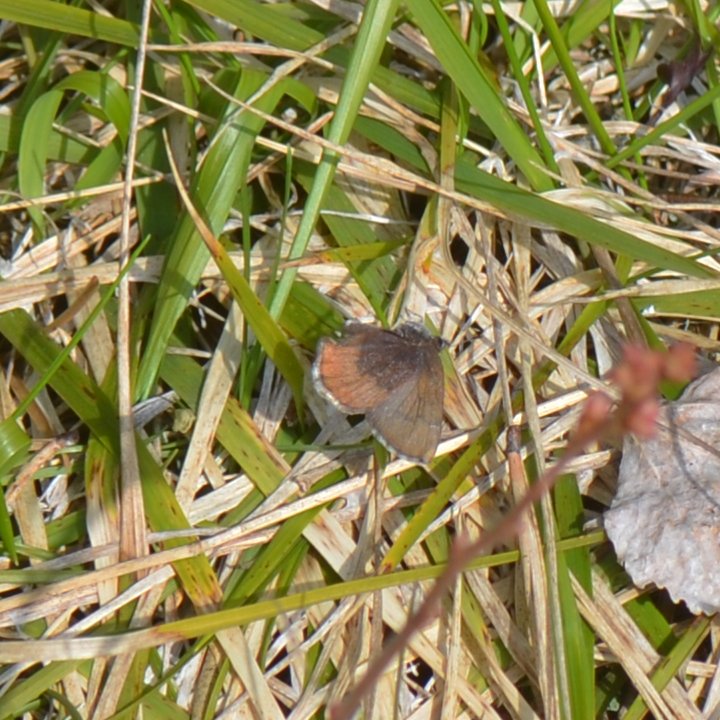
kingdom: Animalia
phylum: Arthropoda
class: Insecta
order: Lepidoptera
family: Lycaenidae
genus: Incisalia
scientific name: Incisalia irioides
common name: Brown Elfin
